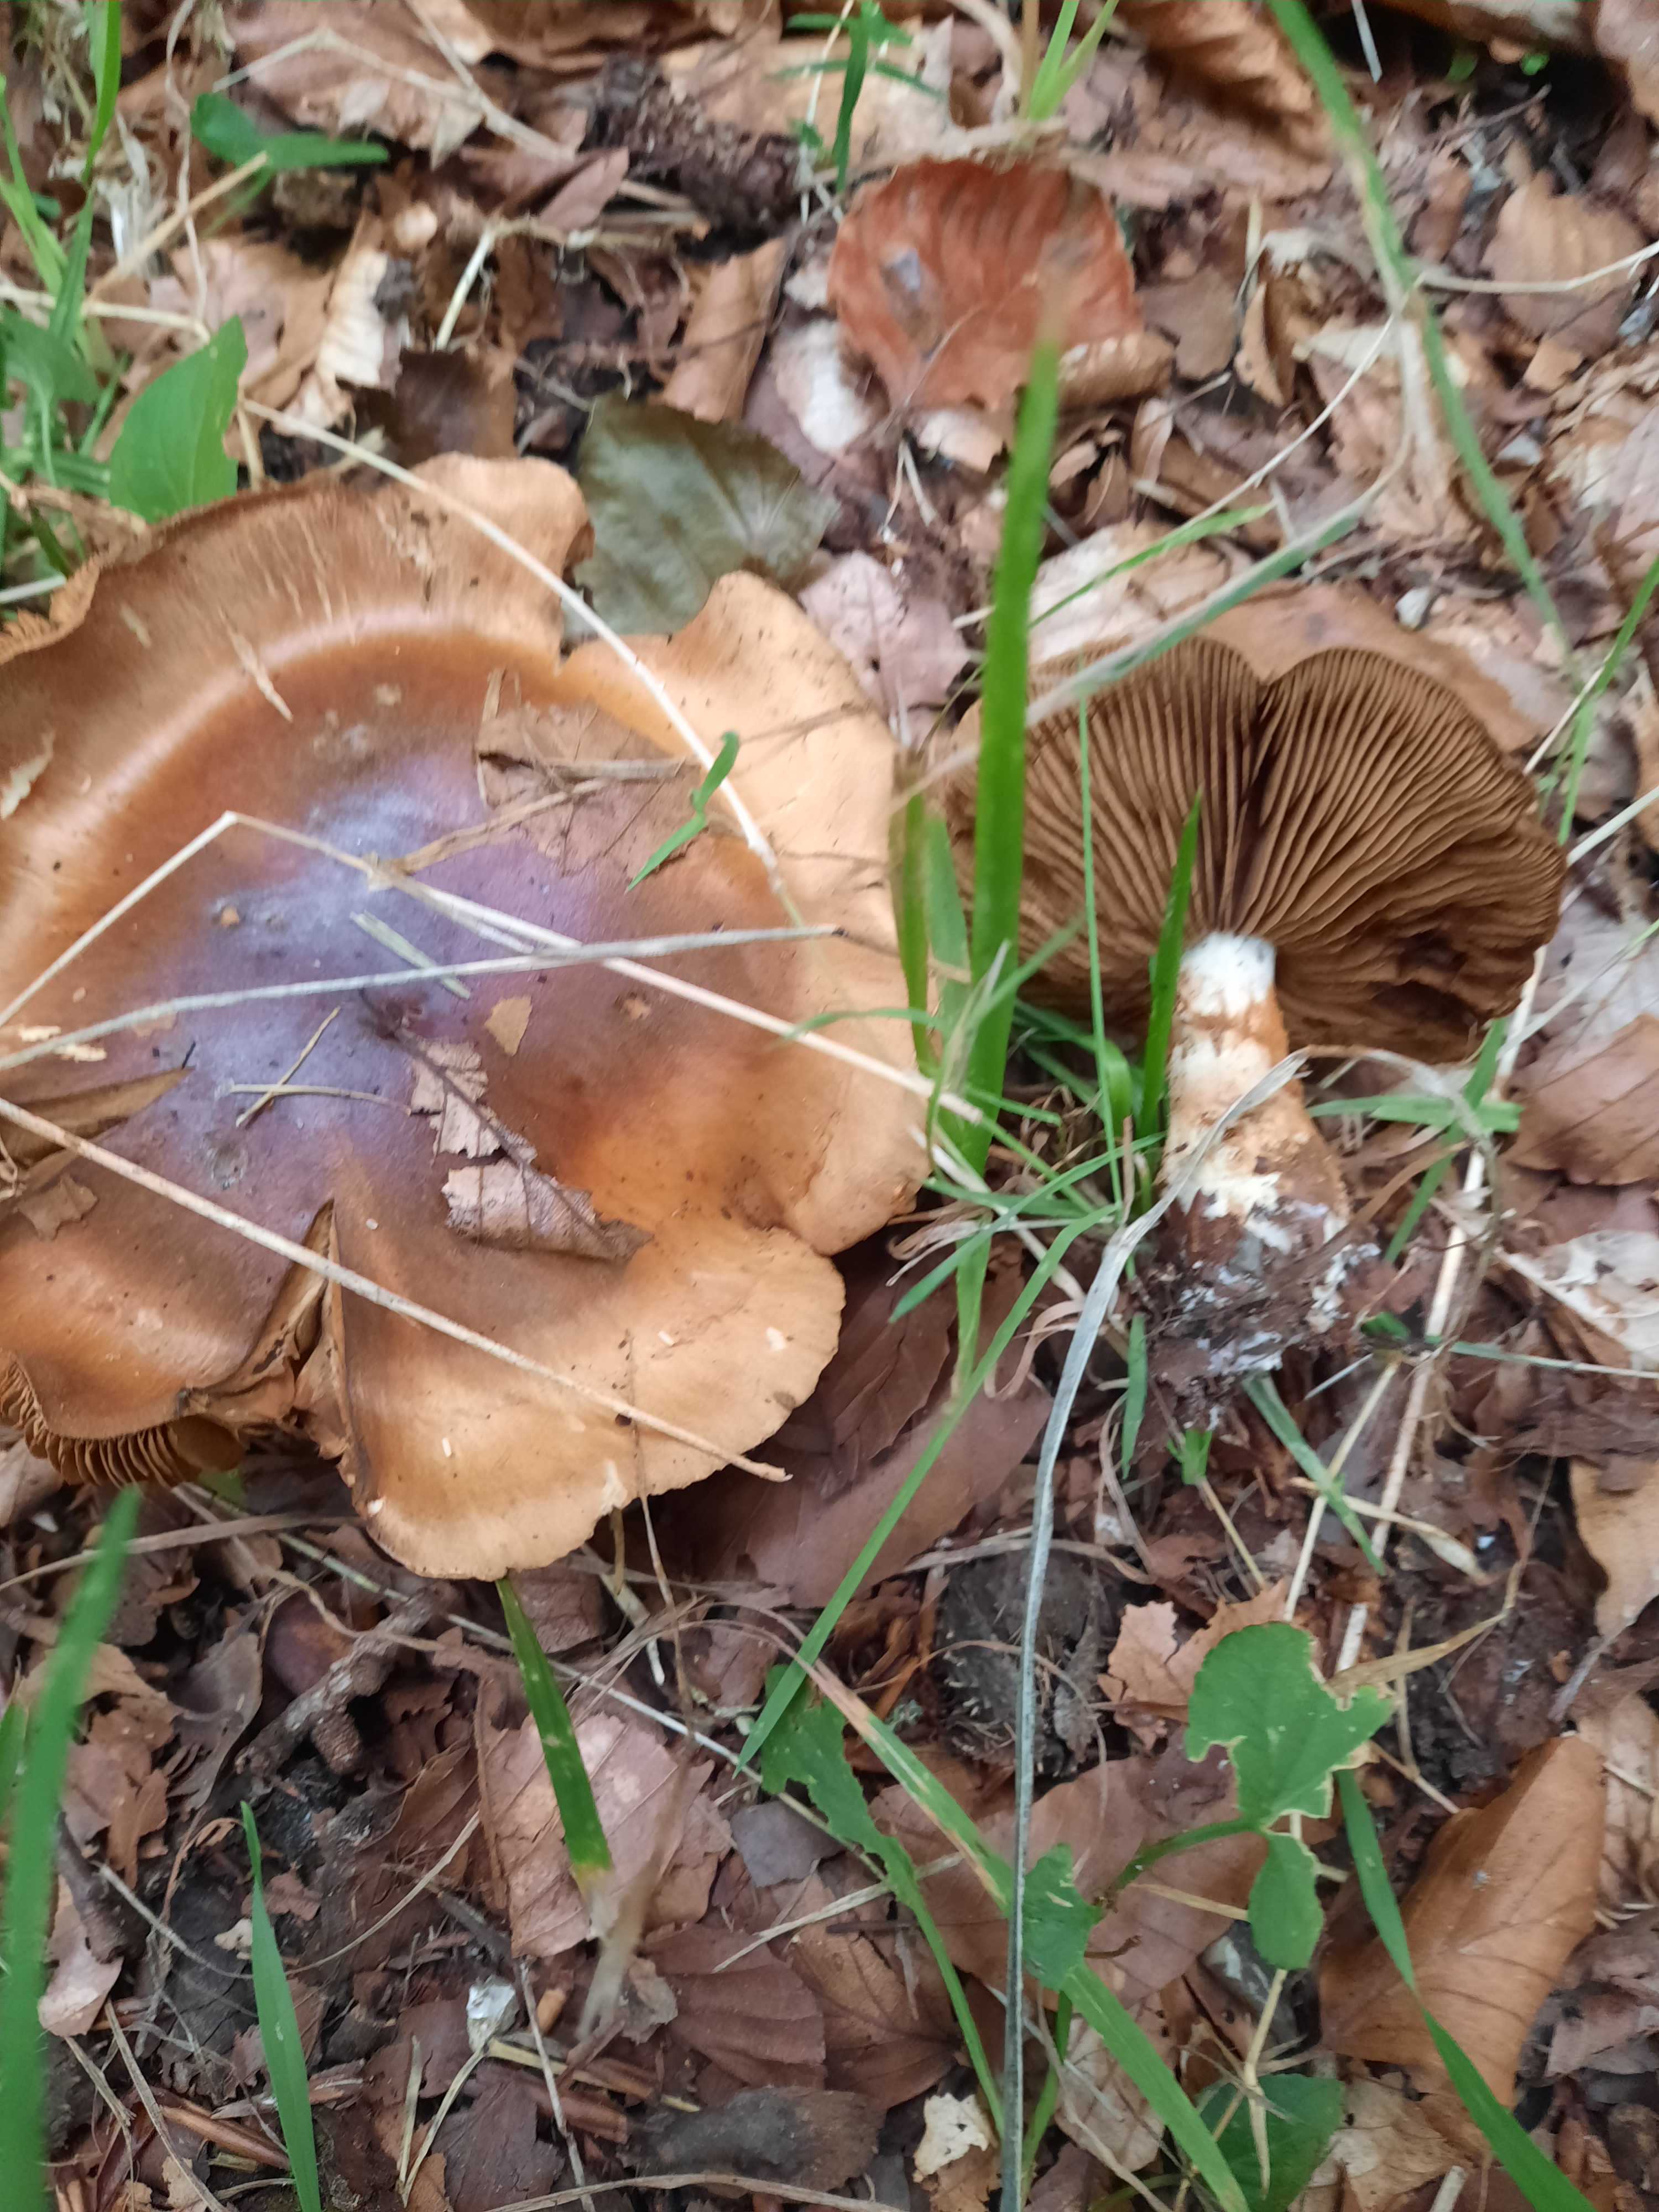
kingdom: Fungi
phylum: Basidiomycota
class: Agaricomycetes
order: Agaricales
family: Cortinariaceae
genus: Cortinarius
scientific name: Cortinarius
